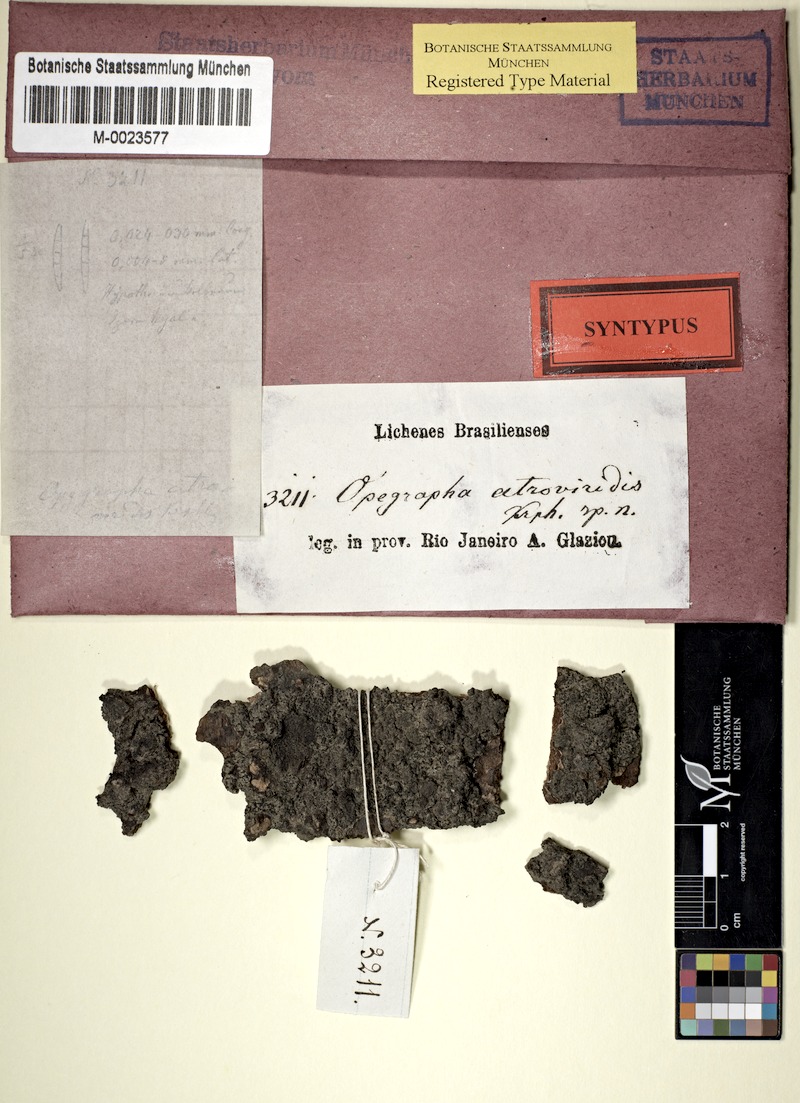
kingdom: Fungi
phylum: Ascomycota
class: Arthoniomycetes
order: Arthoniales
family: Opegraphaceae
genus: Opegrapha
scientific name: Opegrapha
